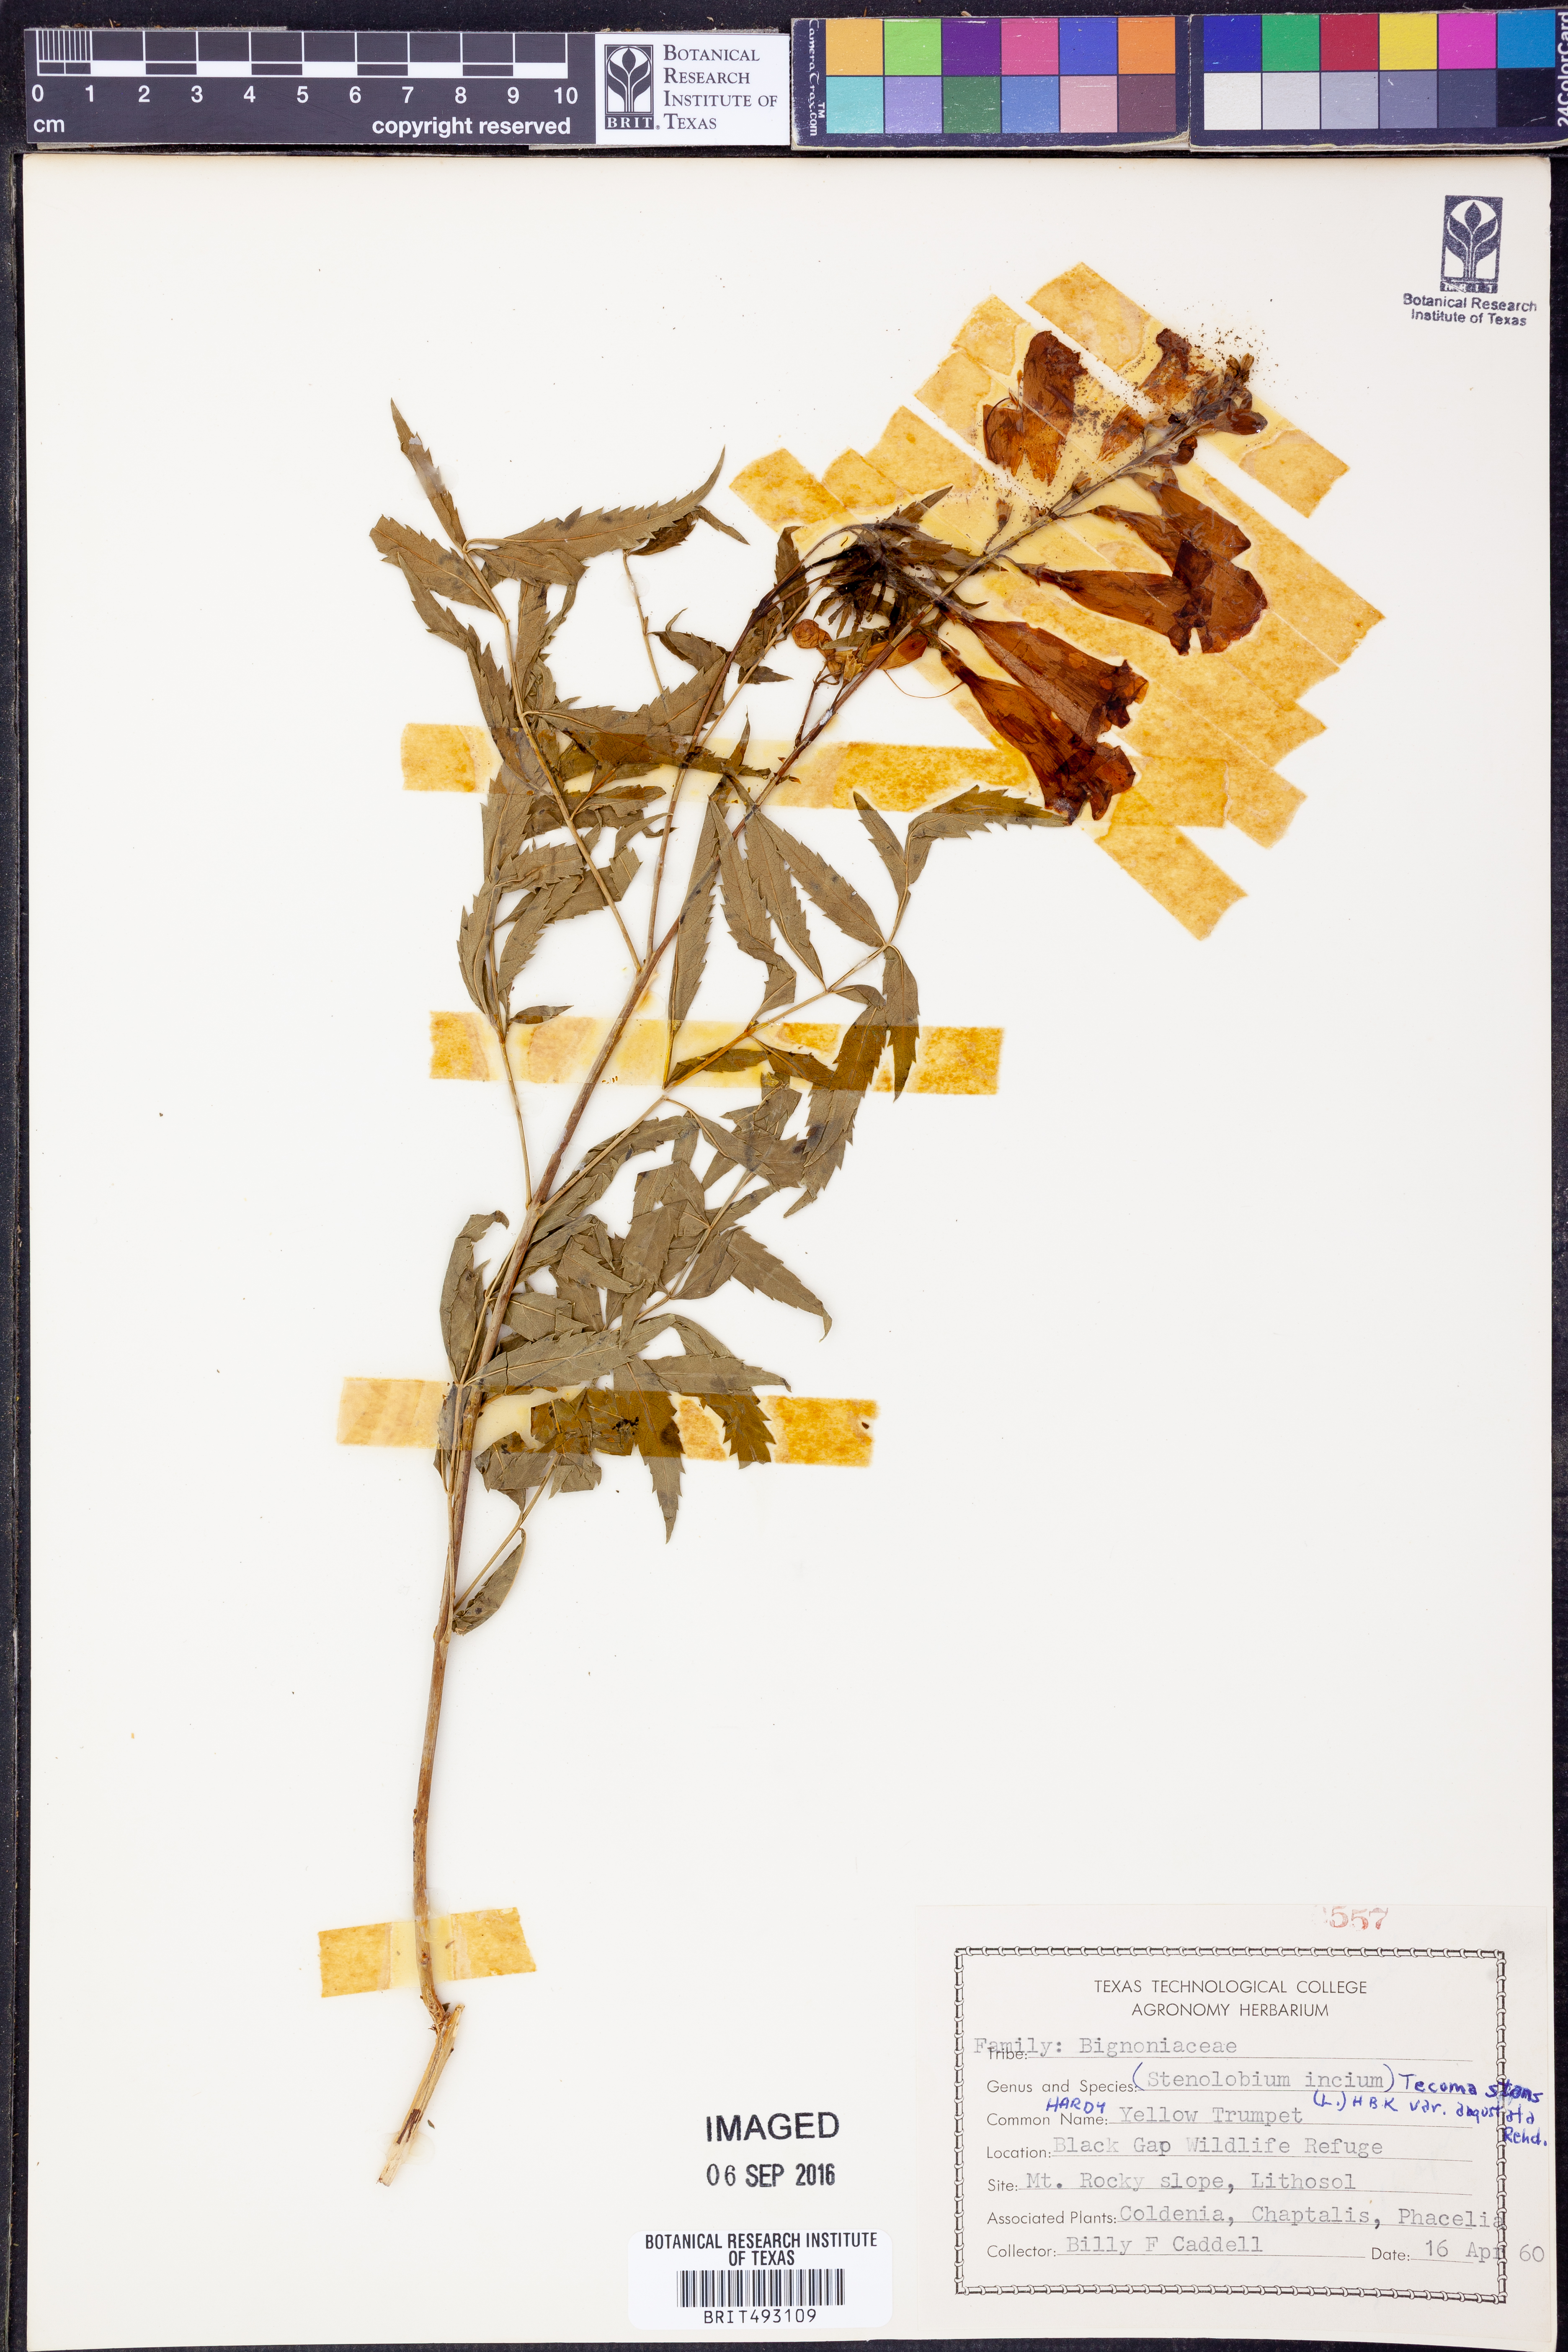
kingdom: Plantae
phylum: Tracheophyta
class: Magnoliopsida
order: Lamiales
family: Bignoniaceae
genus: Tecoma
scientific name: Tecoma stans
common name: Yellow trumpetbush
